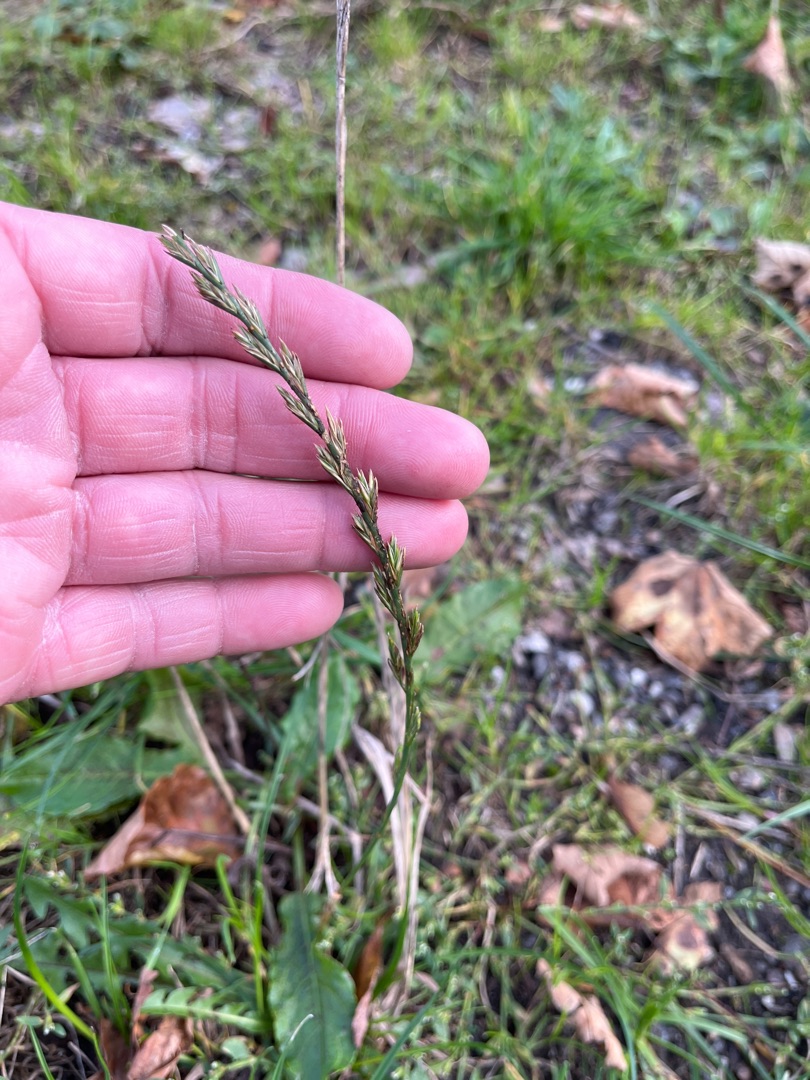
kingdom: Plantae
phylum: Tracheophyta
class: Liliopsida
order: Poales
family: Poaceae
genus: Lolium
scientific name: Lolium perenne
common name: Almindelig rajgræs
